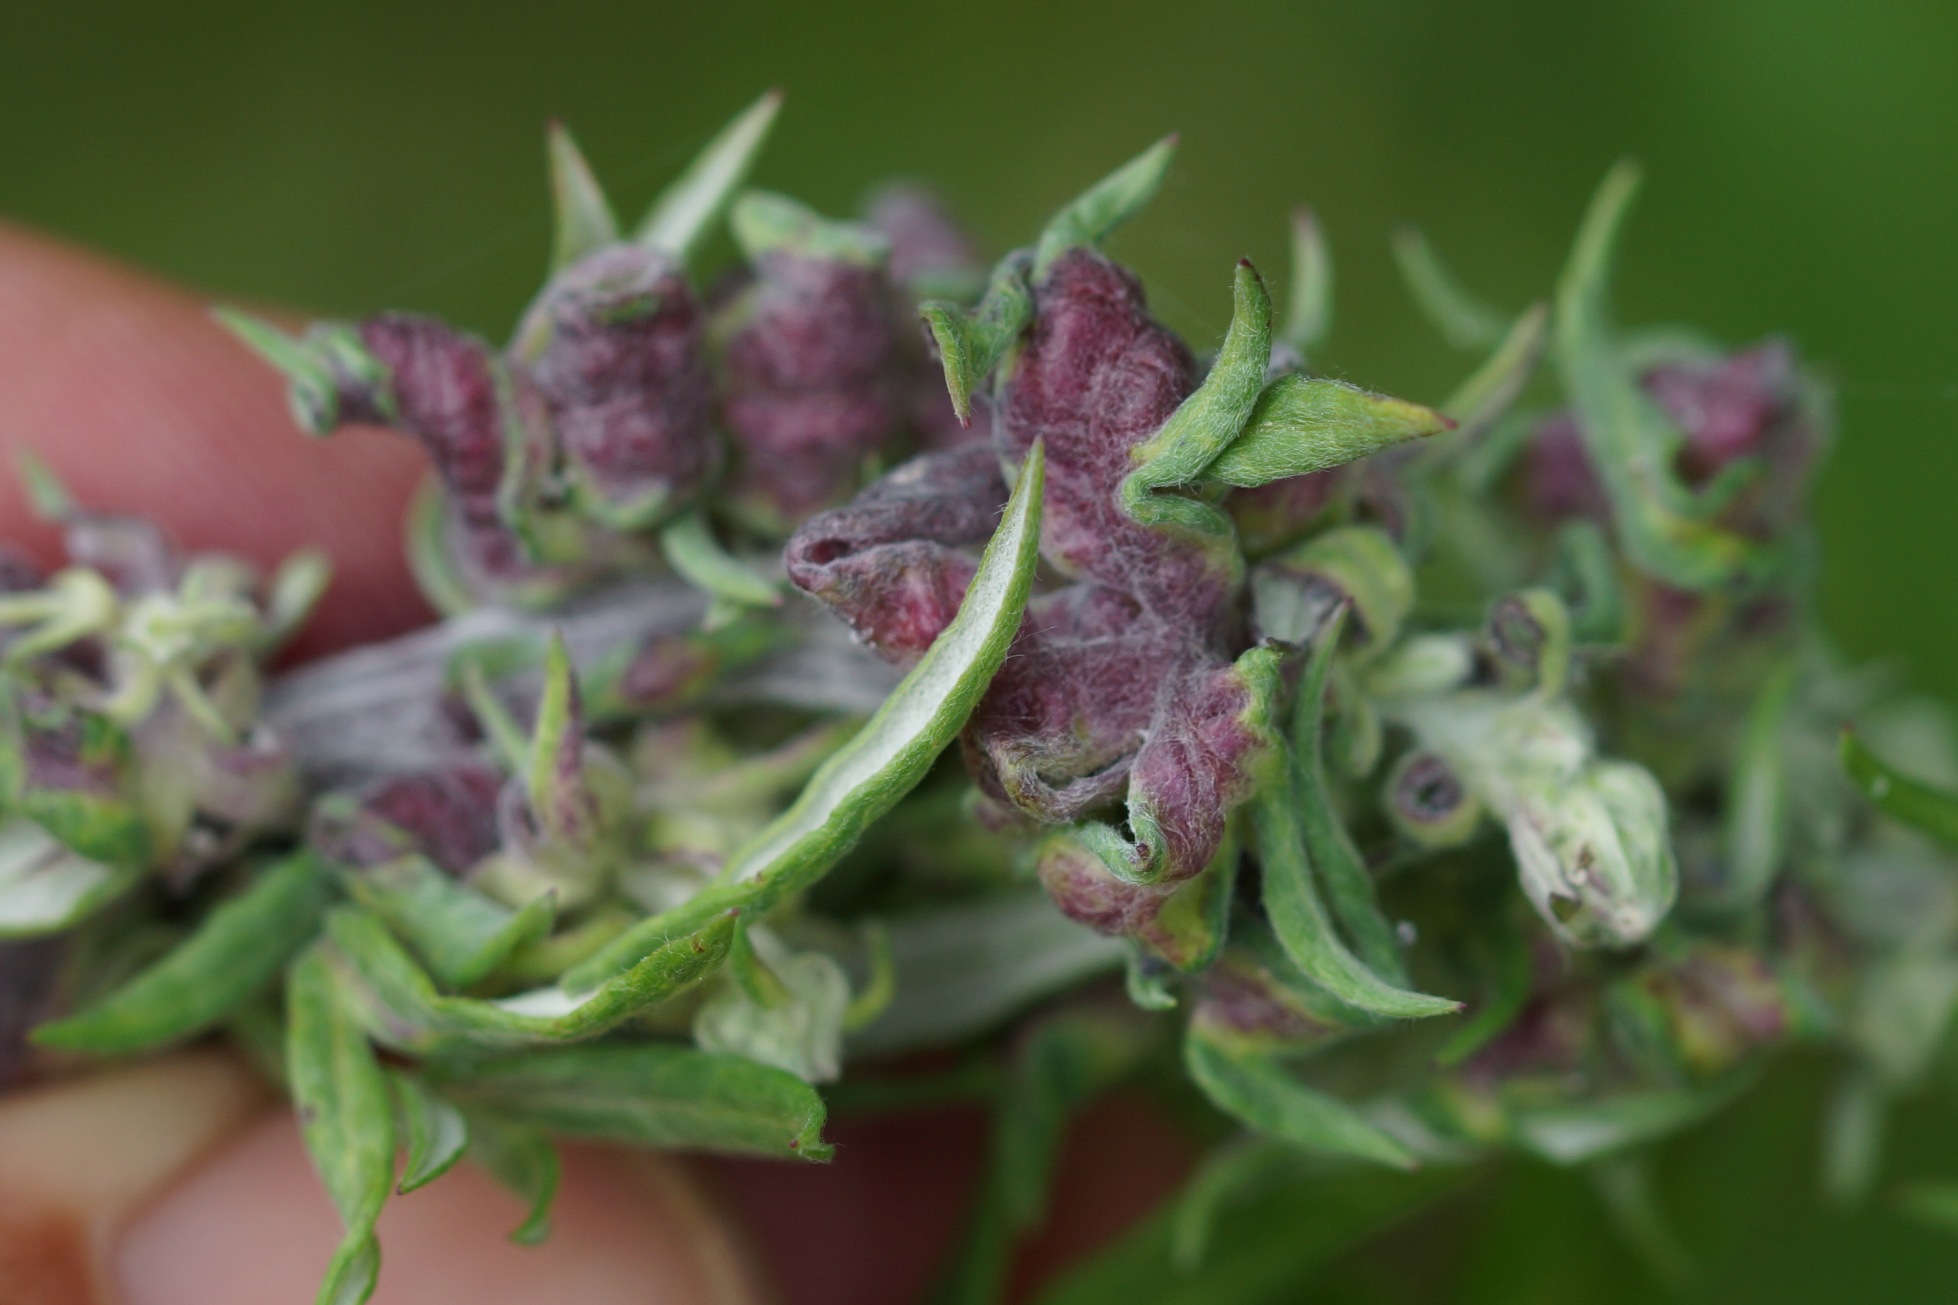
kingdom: Animalia
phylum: Arthropoda
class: Insecta
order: Hemiptera
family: Aphididae
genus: Cryptosiphum
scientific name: Cryptosiphum artemisiae
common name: Bynkegallelus
